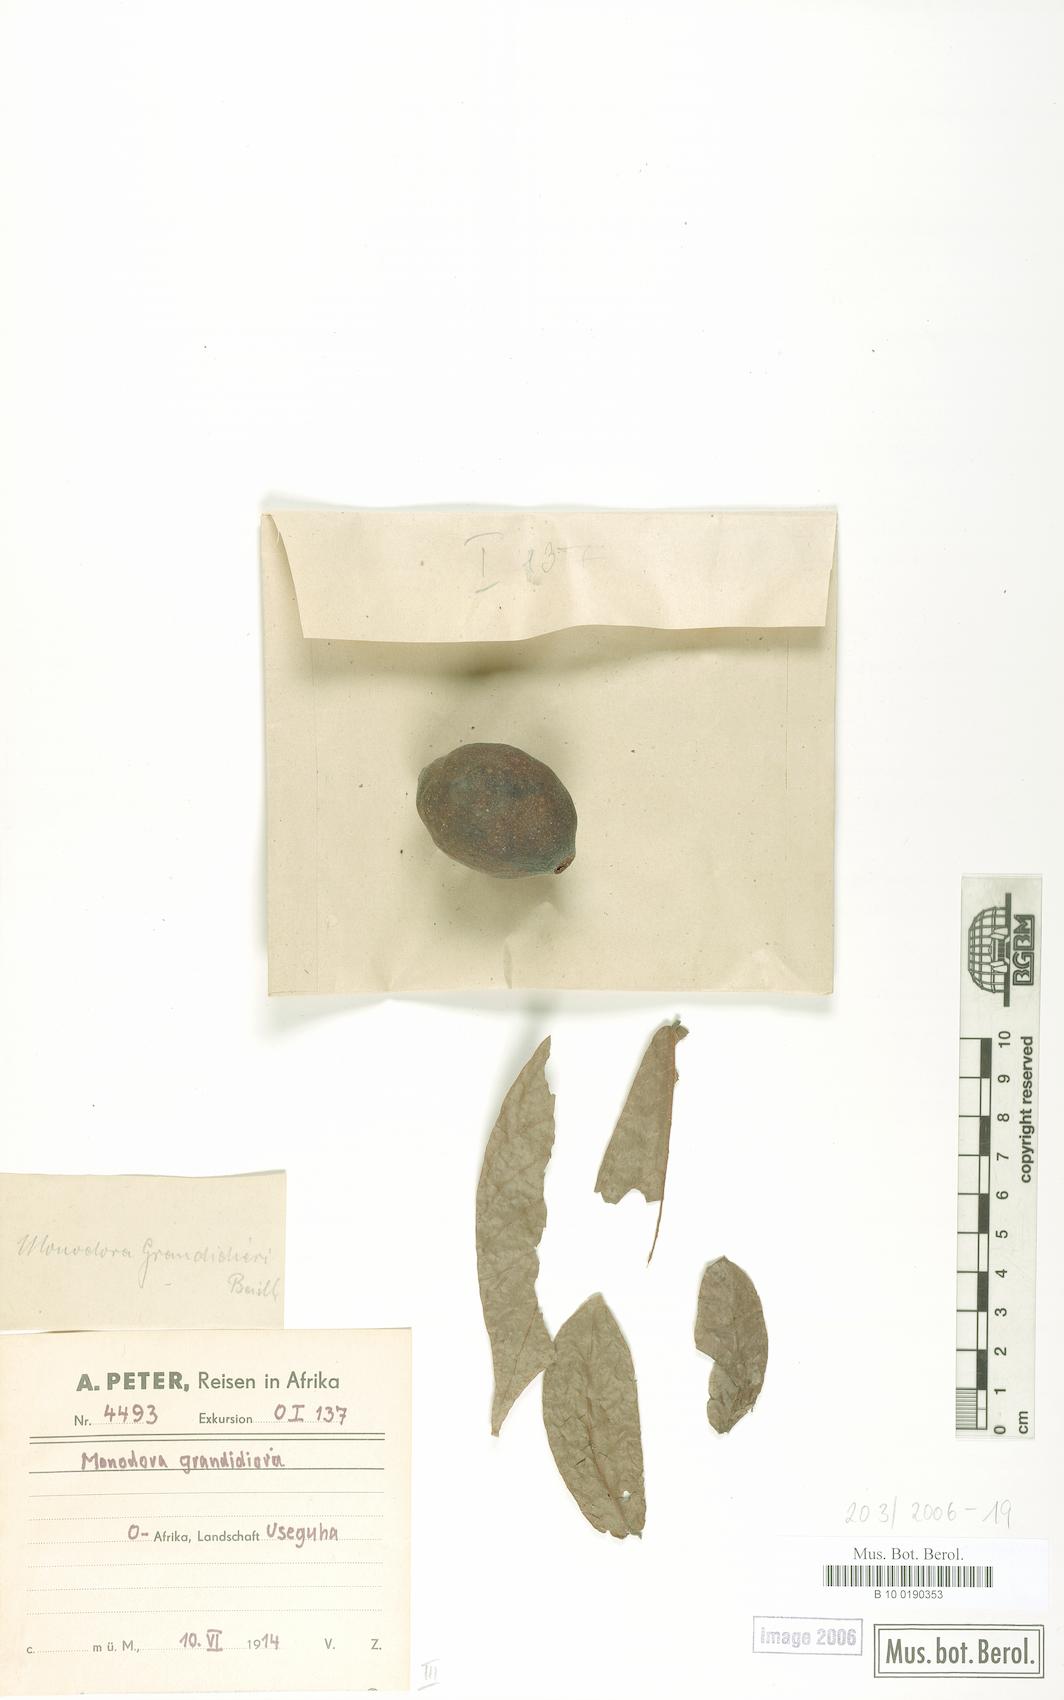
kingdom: Plantae
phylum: Tracheophyta
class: Magnoliopsida
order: Magnoliales
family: Annonaceae
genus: Monodora
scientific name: Monodora grandidieri
